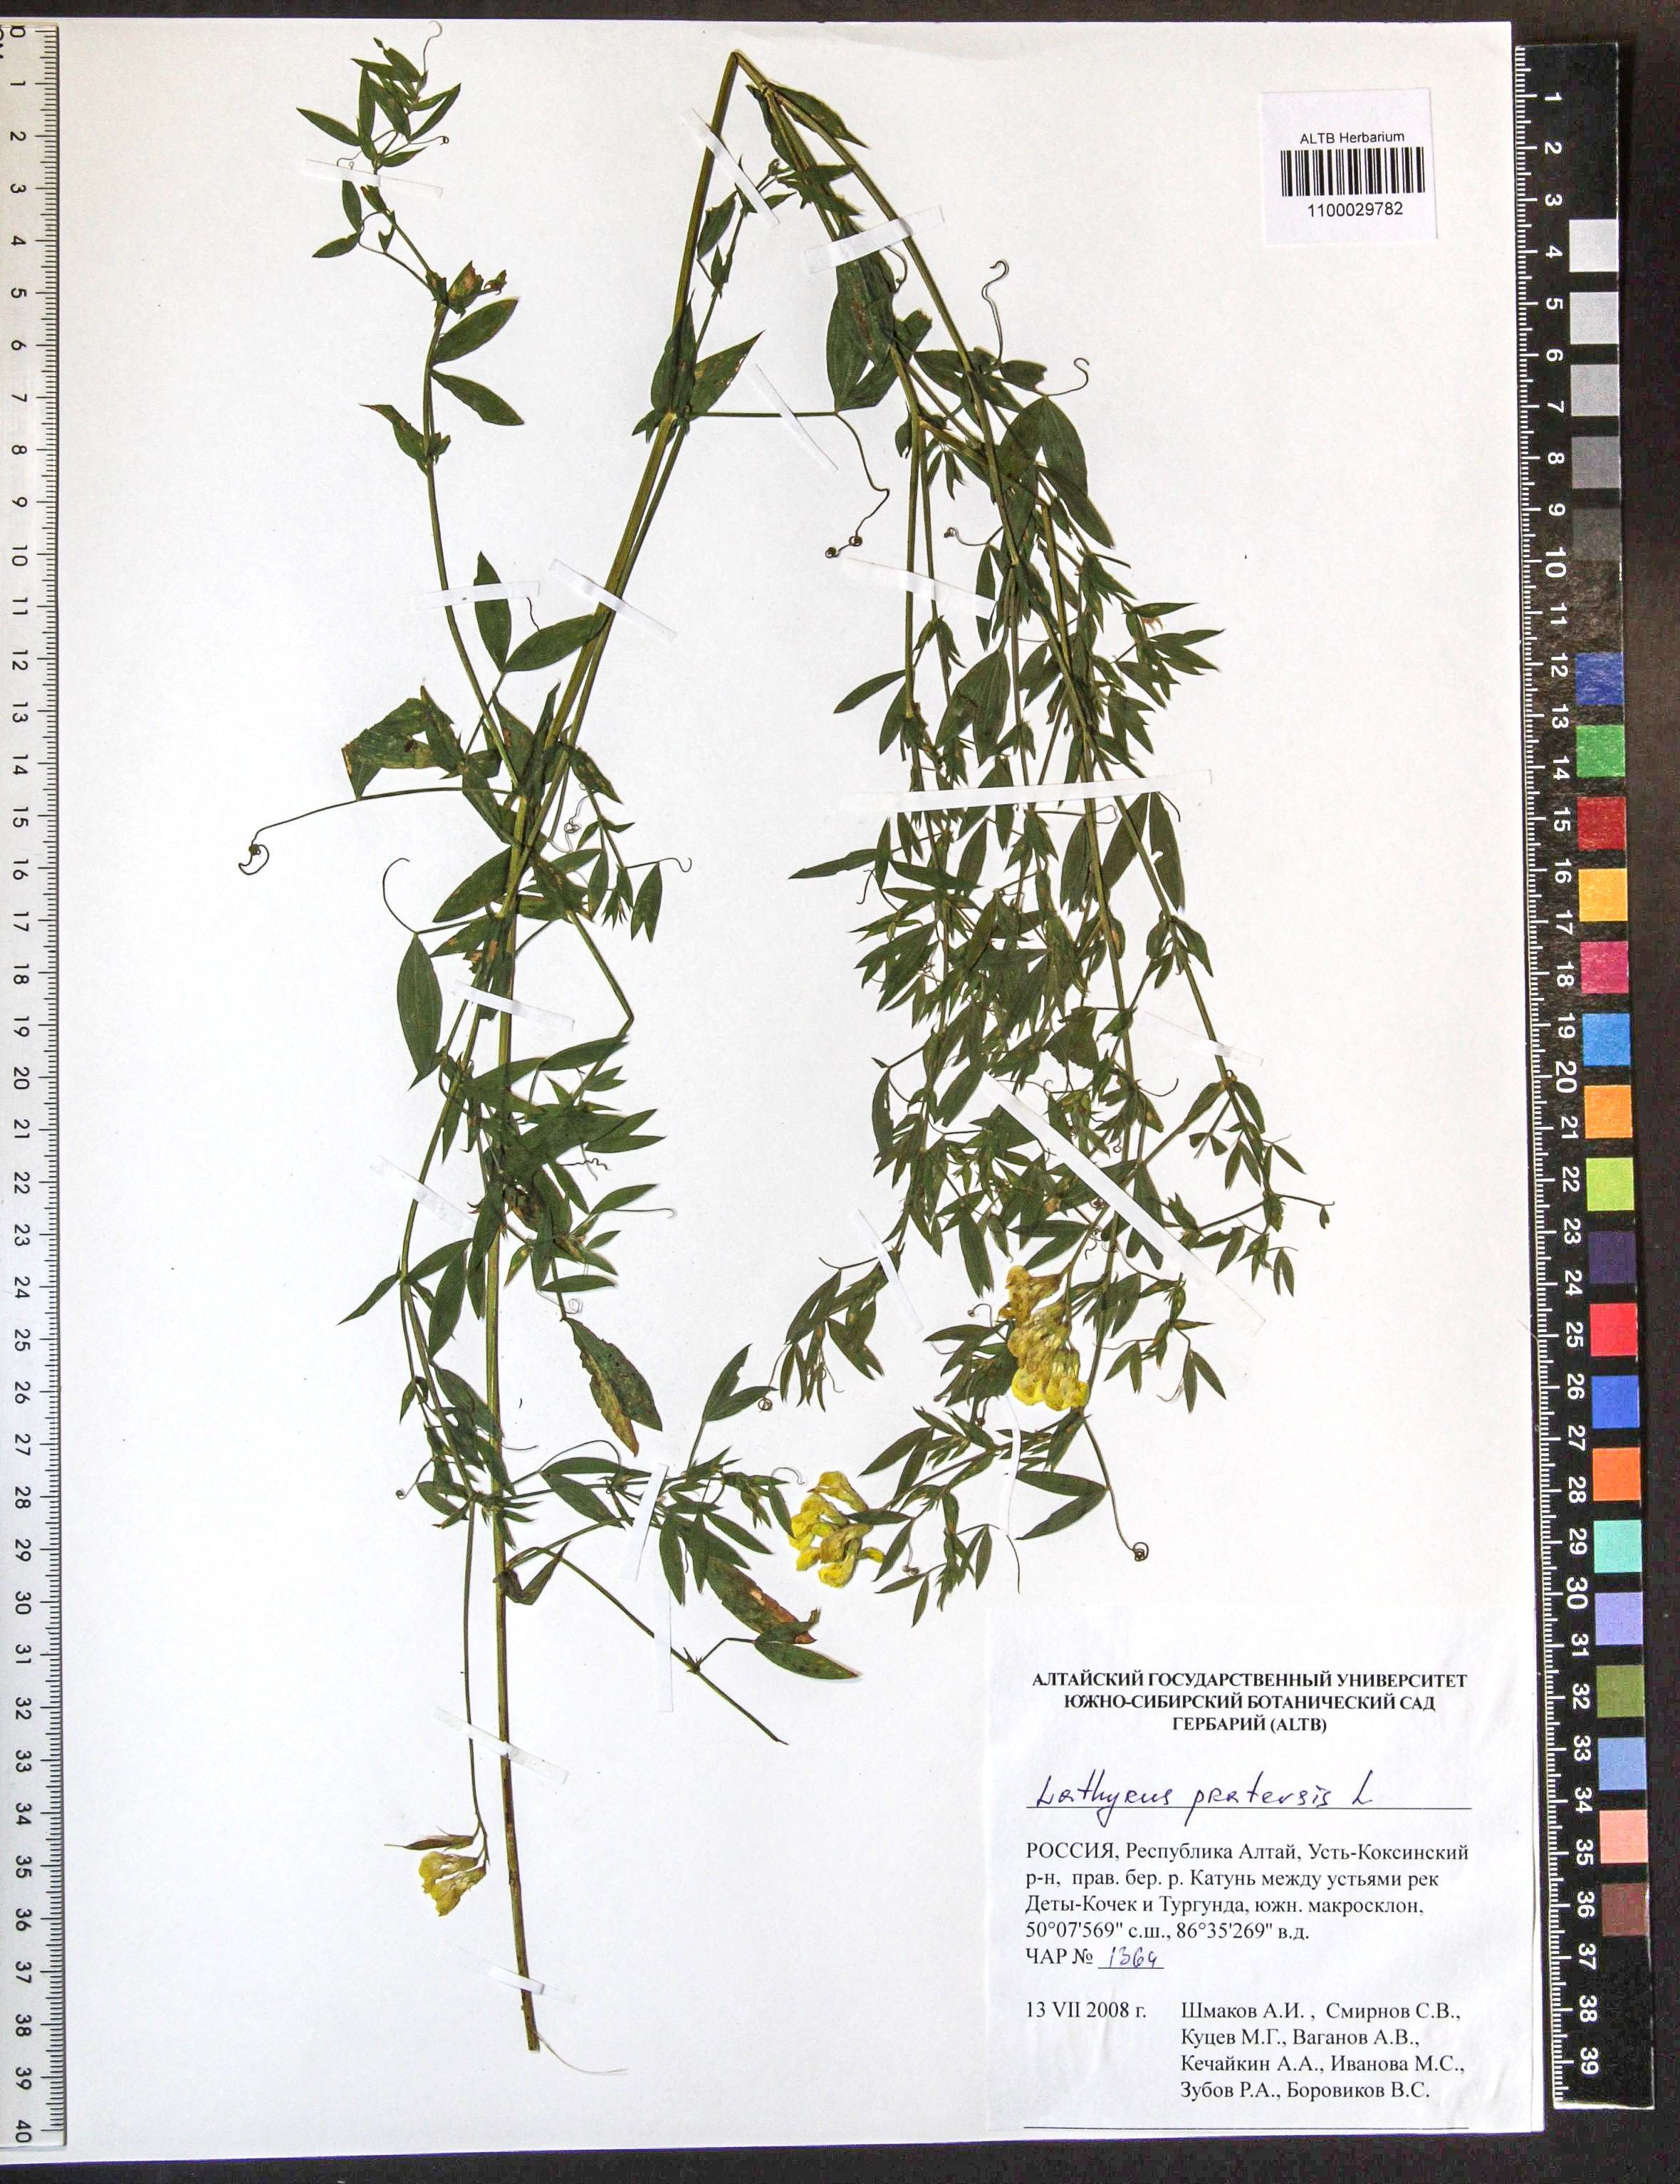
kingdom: Plantae
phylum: Tracheophyta
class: Magnoliopsida
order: Fabales
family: Fabaceae
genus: Lathyrus
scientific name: Lathyrus pratensis
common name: Meadow vetchling
